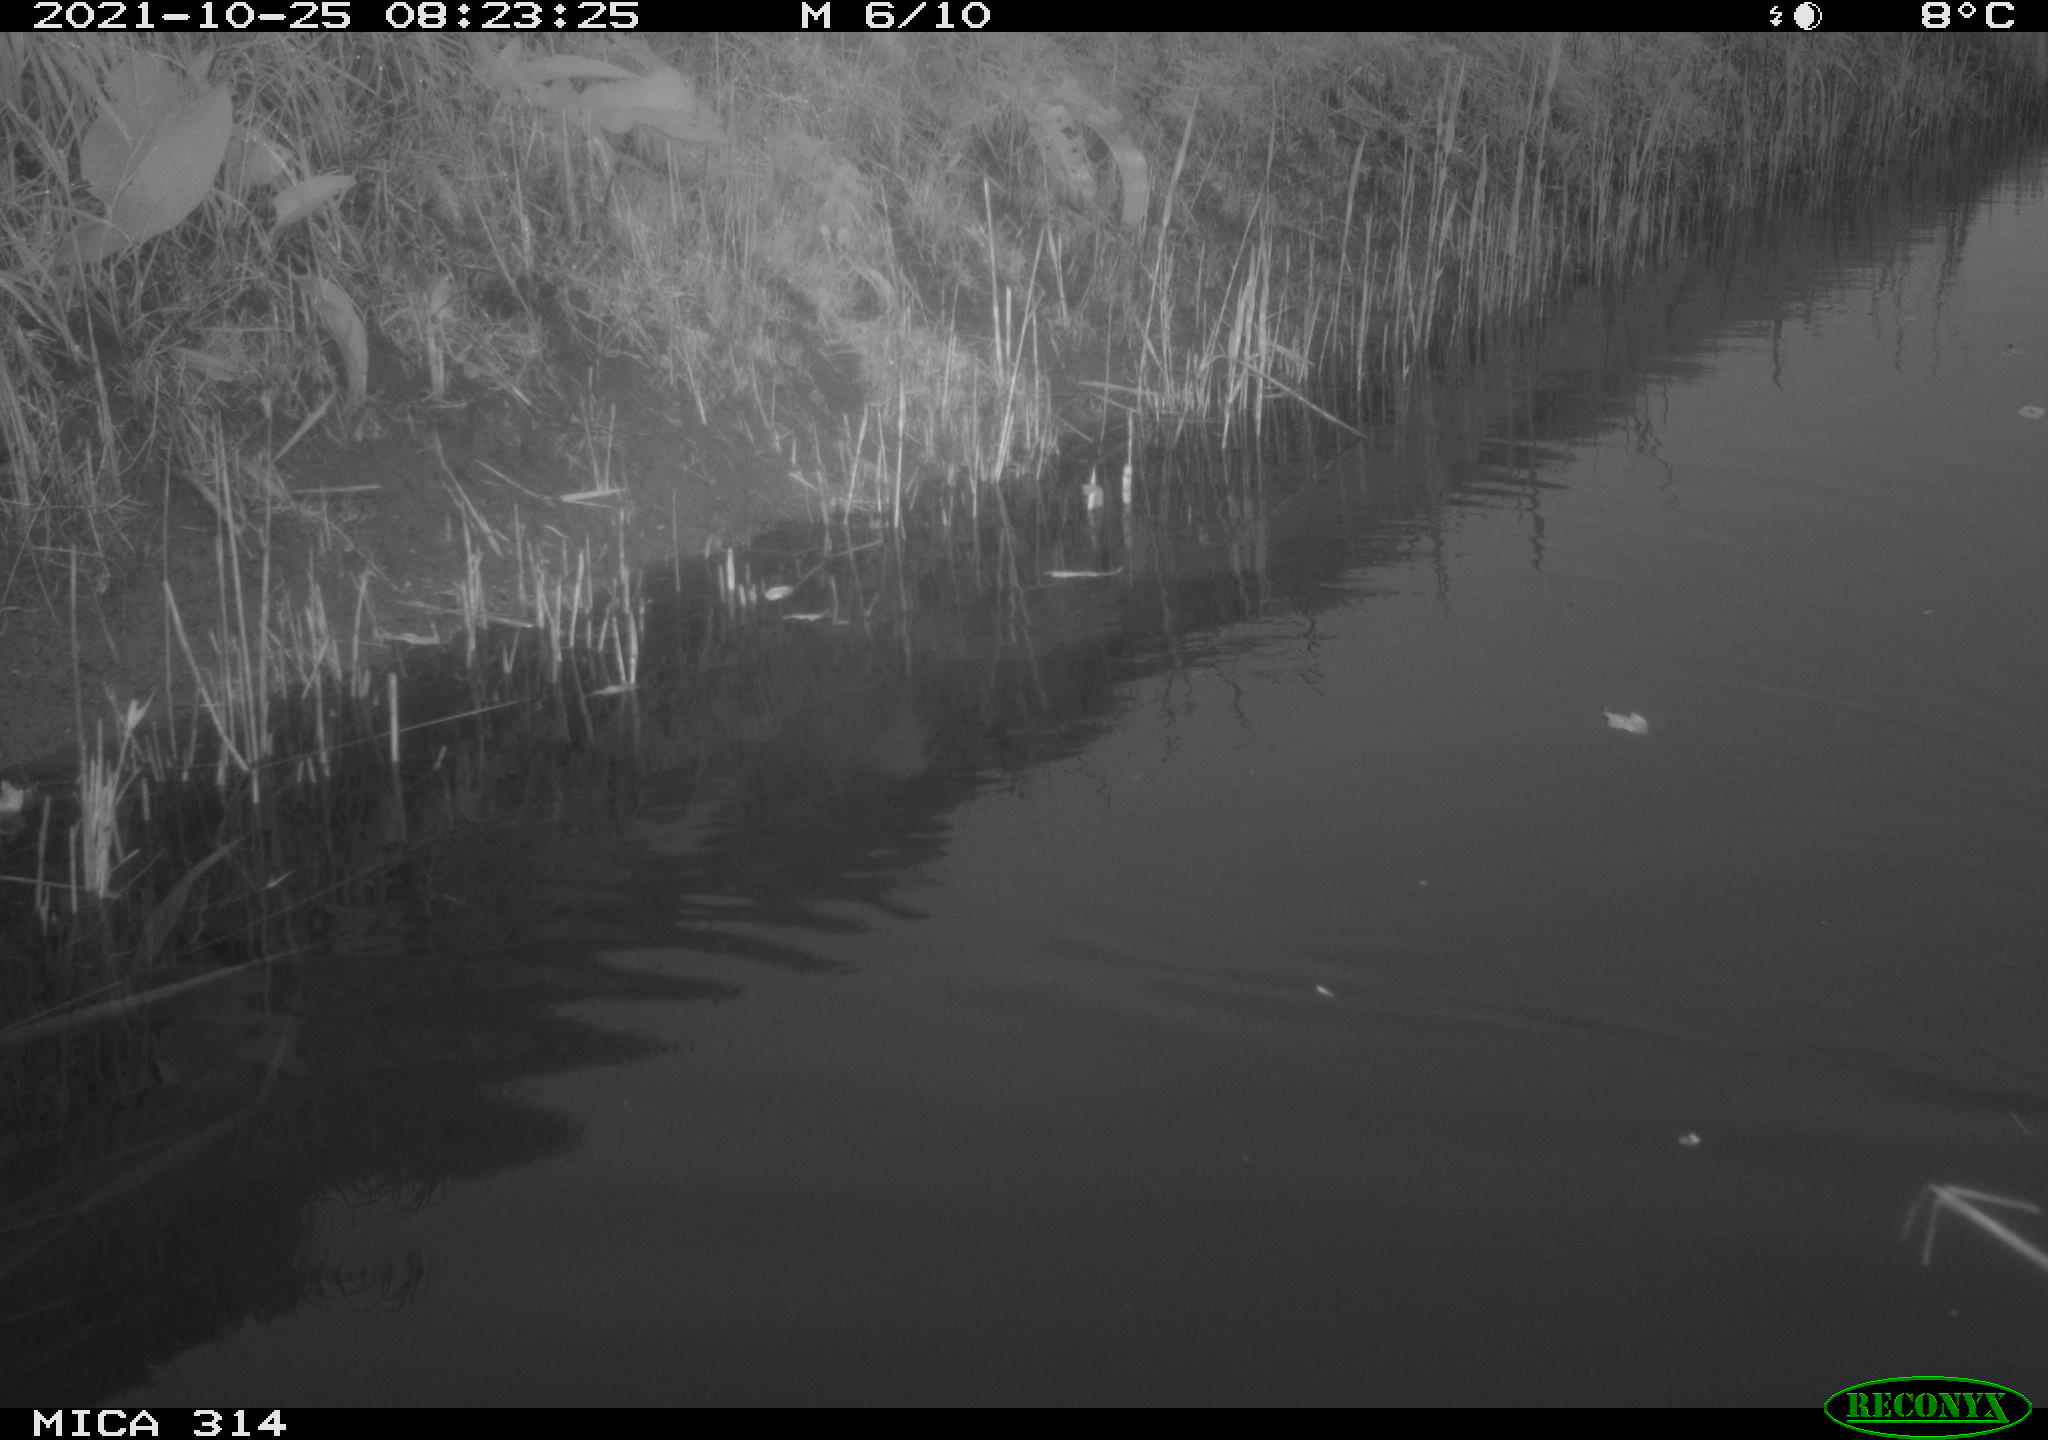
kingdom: Animalia
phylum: Chordata
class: Aves
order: Gruiformes
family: Rallidae
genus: Gallinula
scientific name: Gallinula chloropus
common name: Common moorhen
